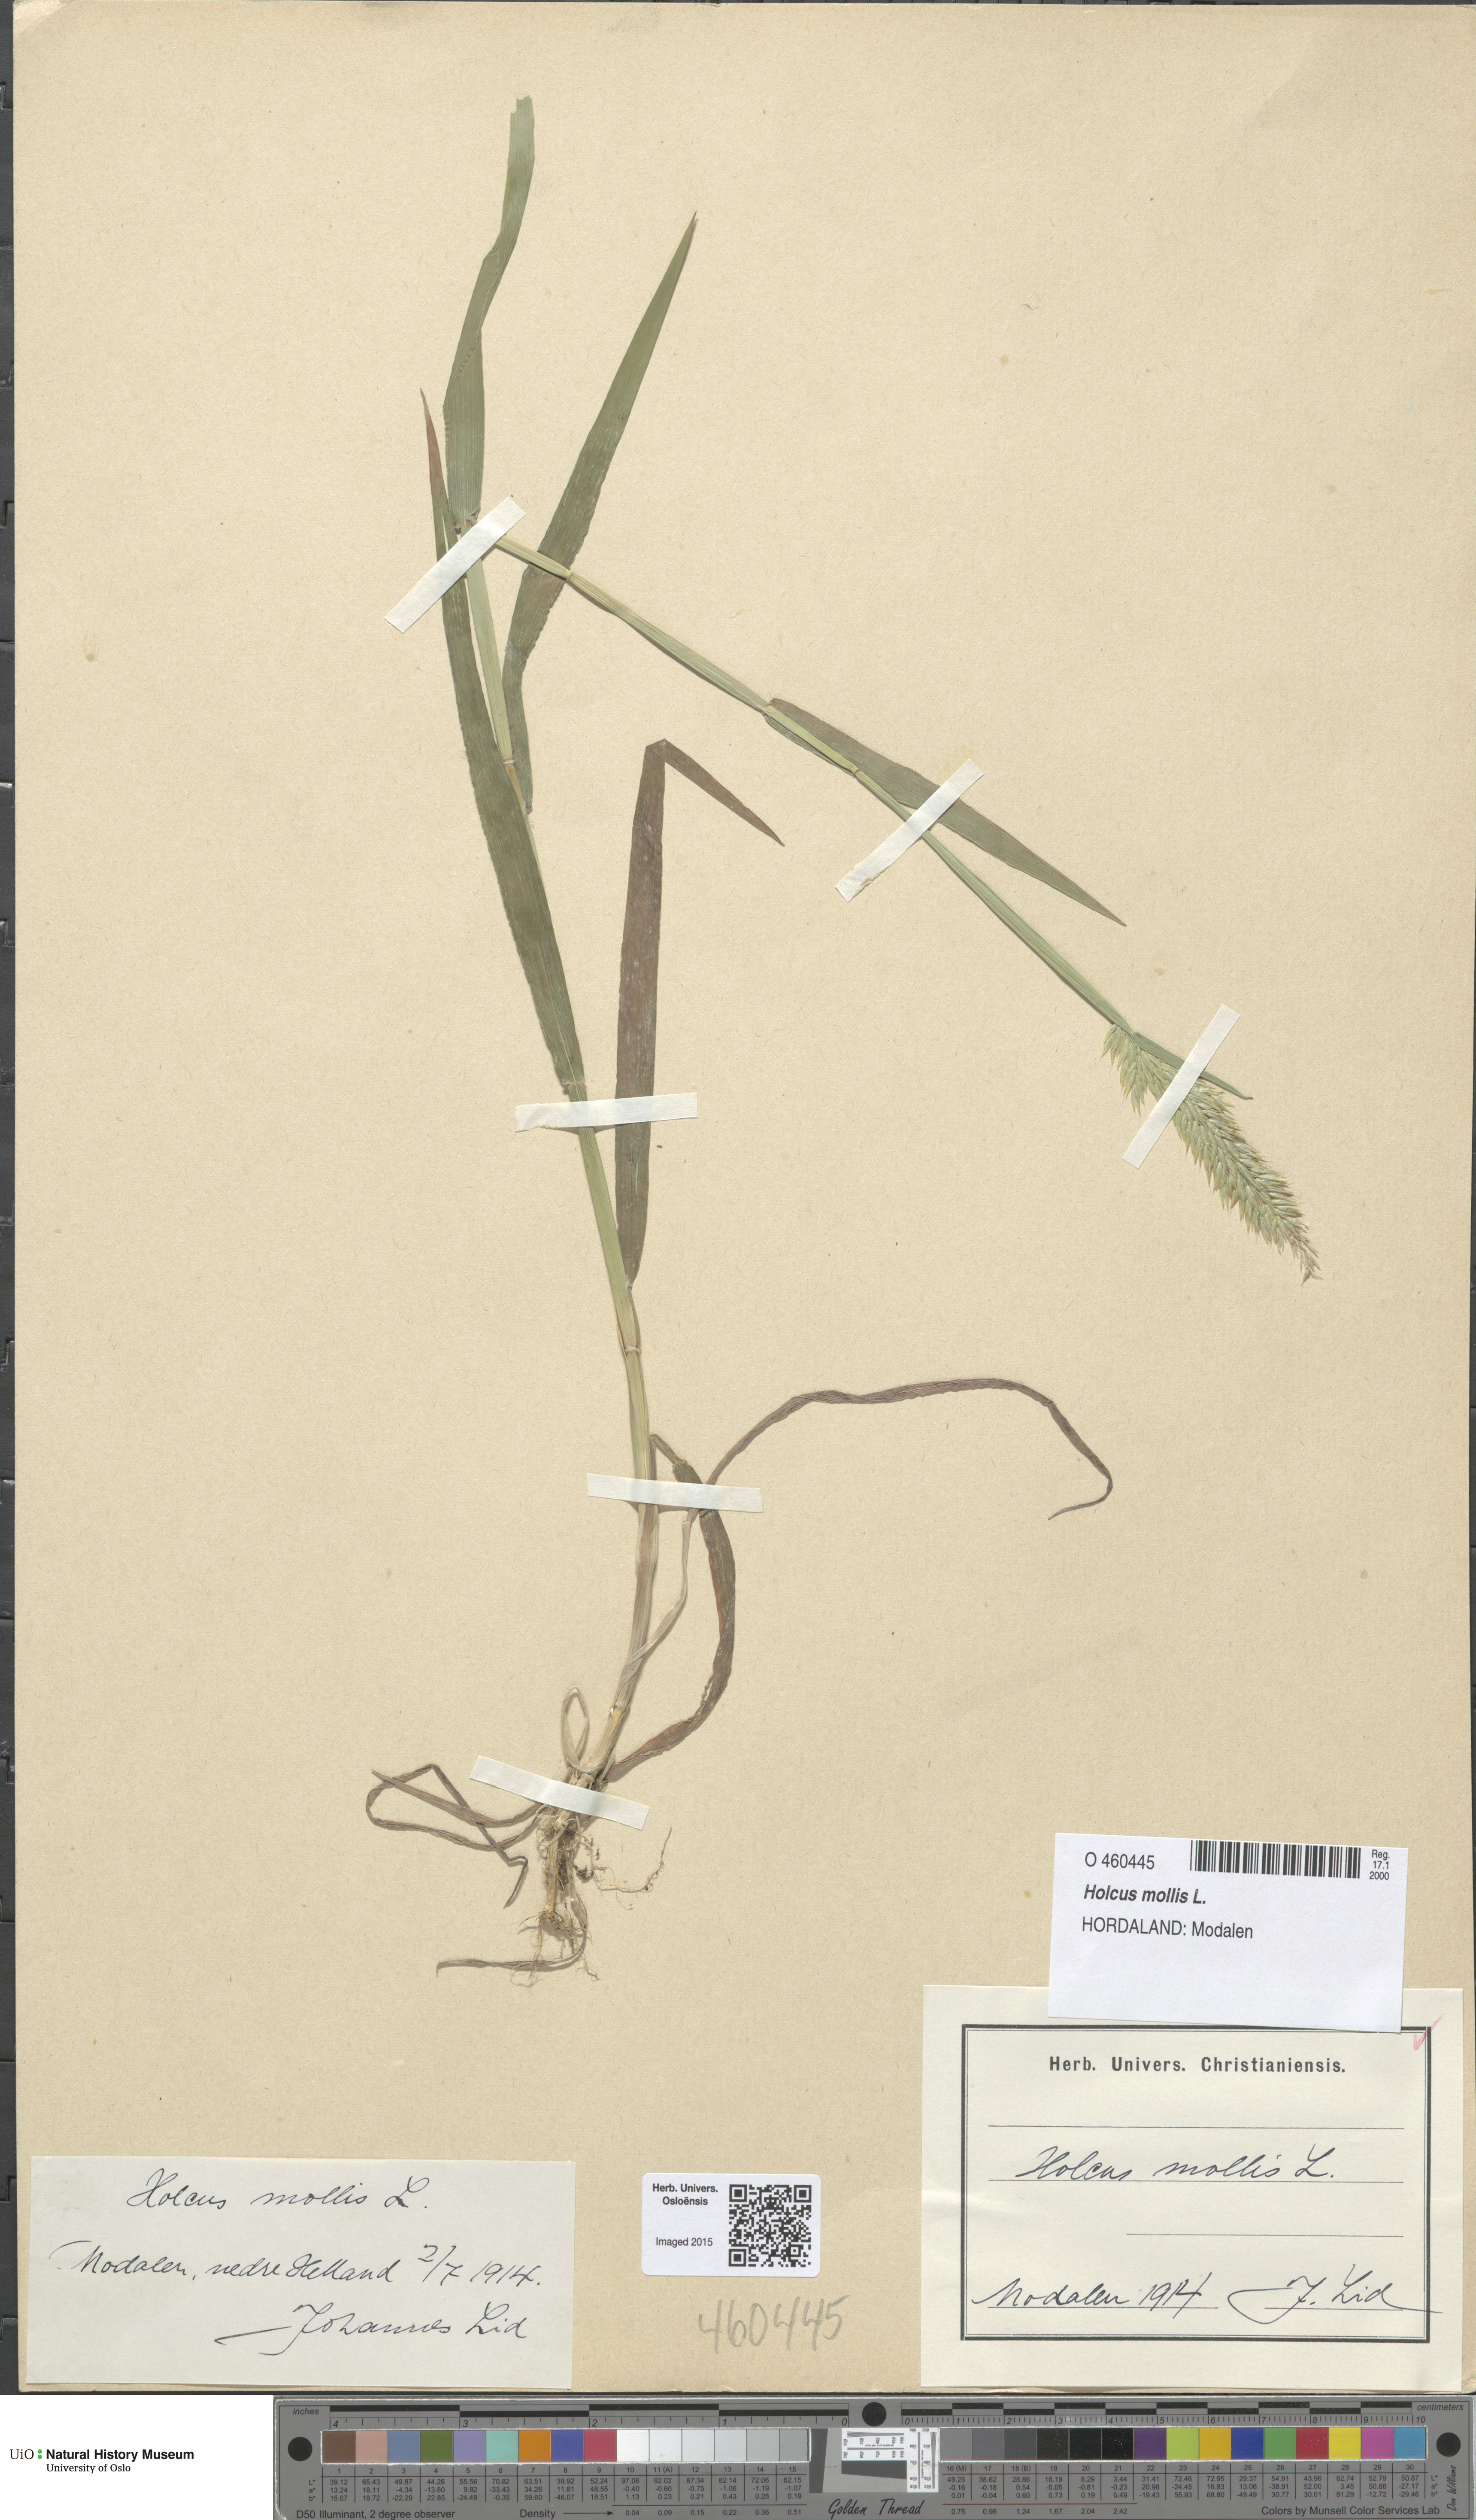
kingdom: Plantae
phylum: Tracheophyta
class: Liliopsida
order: Poales
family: Poaceae
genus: Holcus
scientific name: Holcus mollis
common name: Creeping velvetgrass
